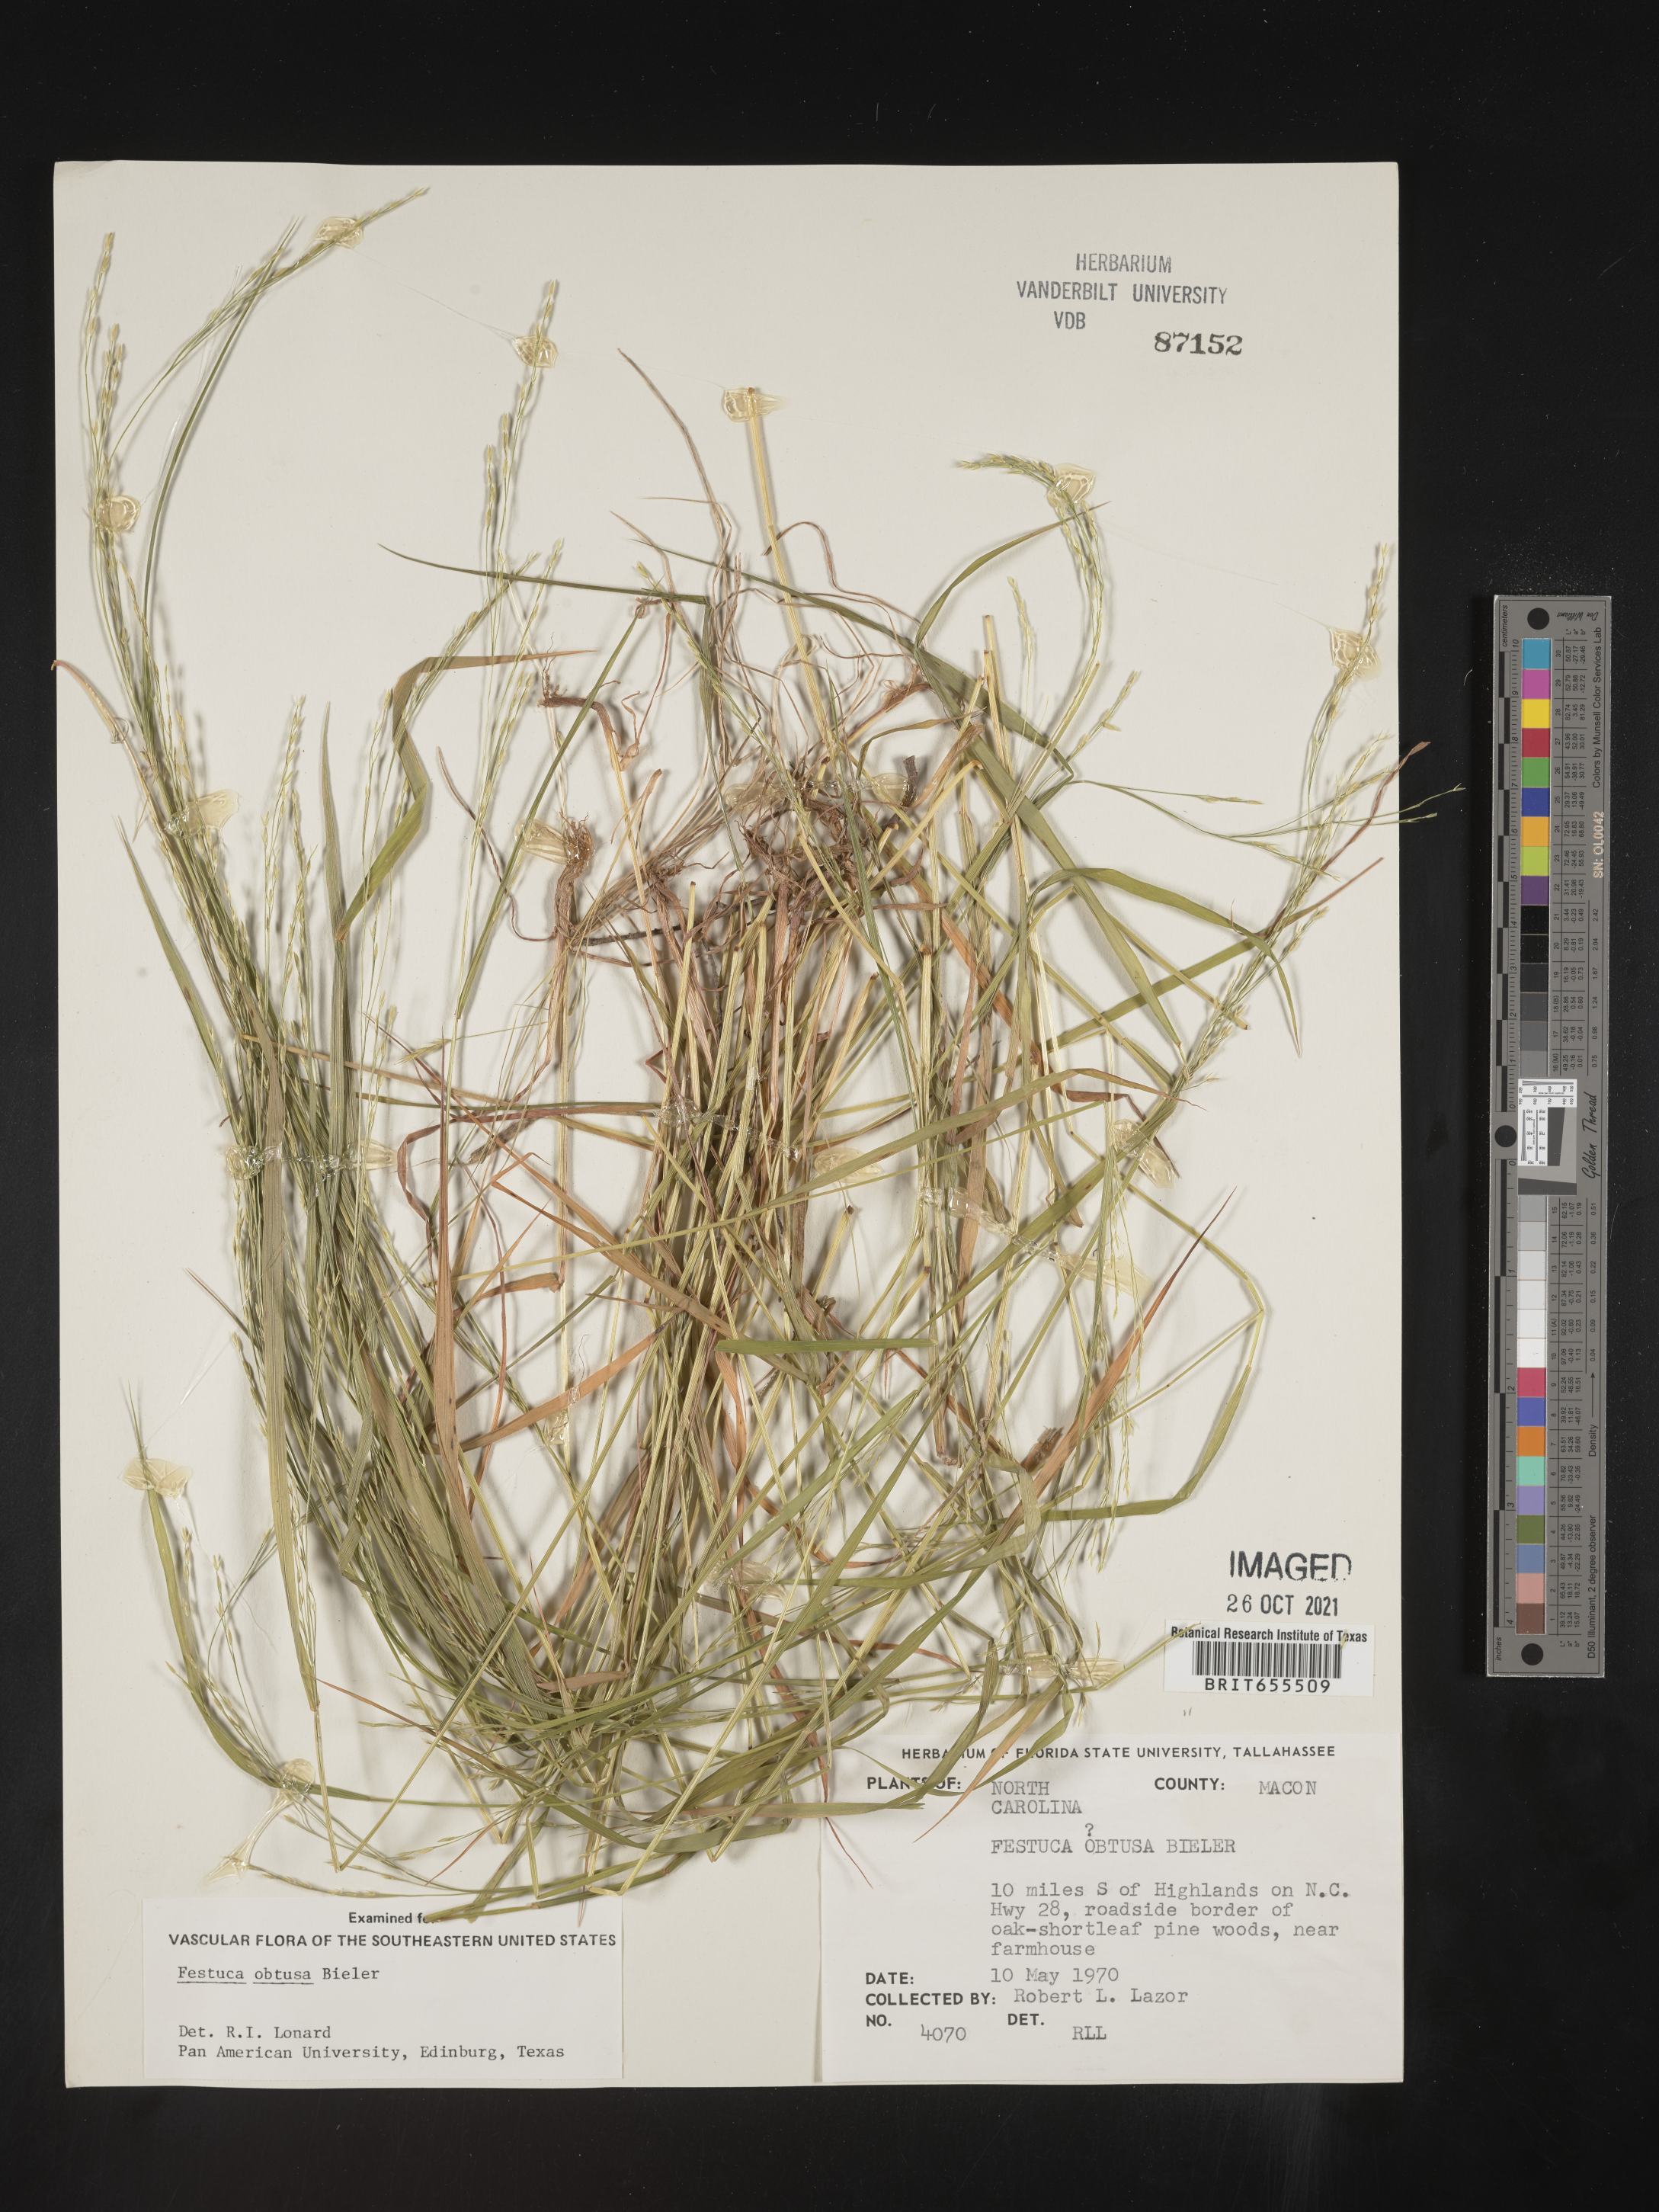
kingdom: Plantae
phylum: Tracheophyta
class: Liliopsida
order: Poales
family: Poaceae
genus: Festuca
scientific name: Festuca
